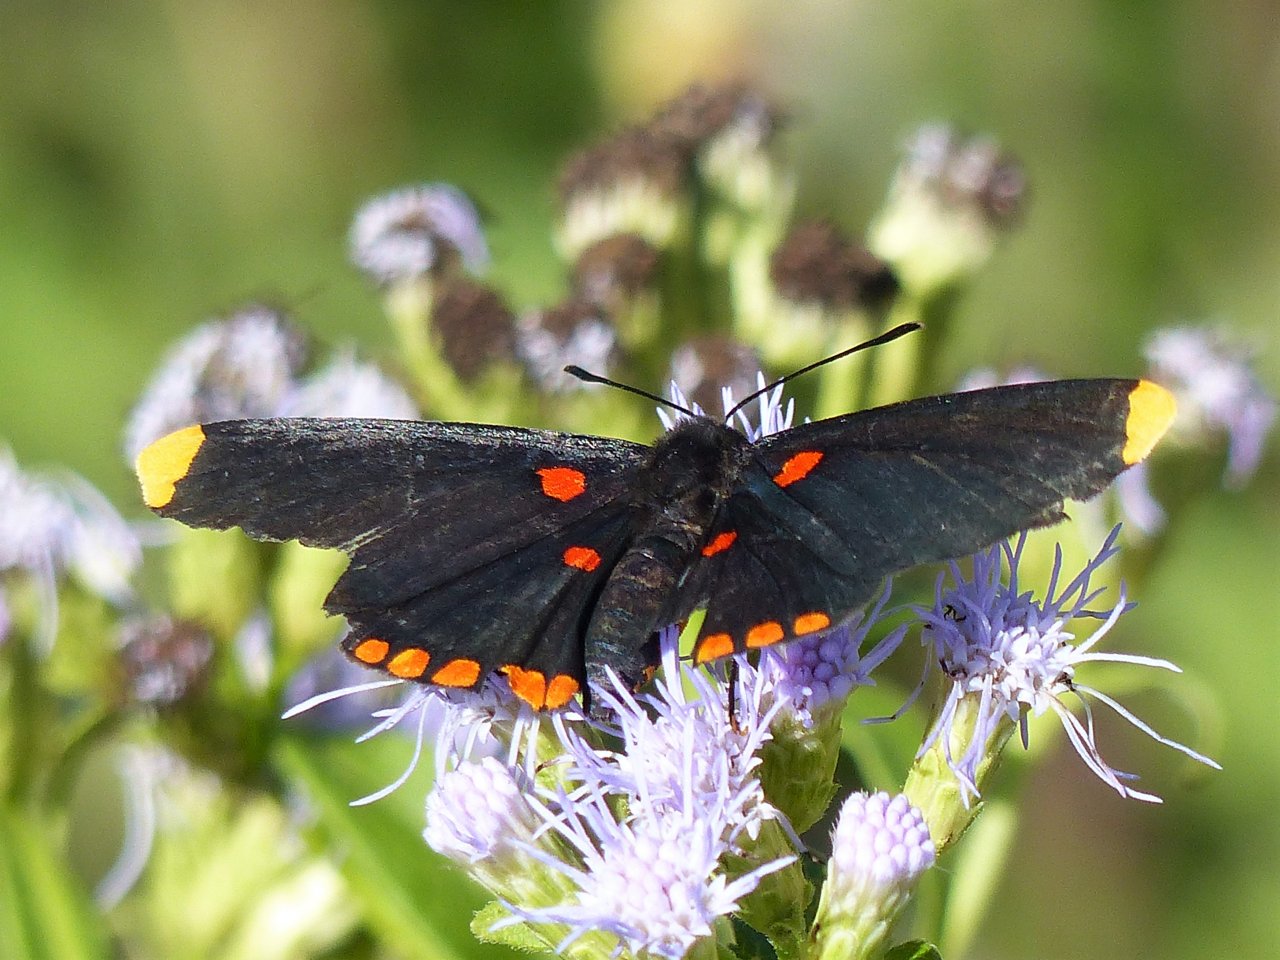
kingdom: Animalia
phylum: Arthropoda
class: Insecta
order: Lepidoptera
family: Lycaenidae
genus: Melanis
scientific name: Melanis pixe
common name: Red-bordered Pixie
